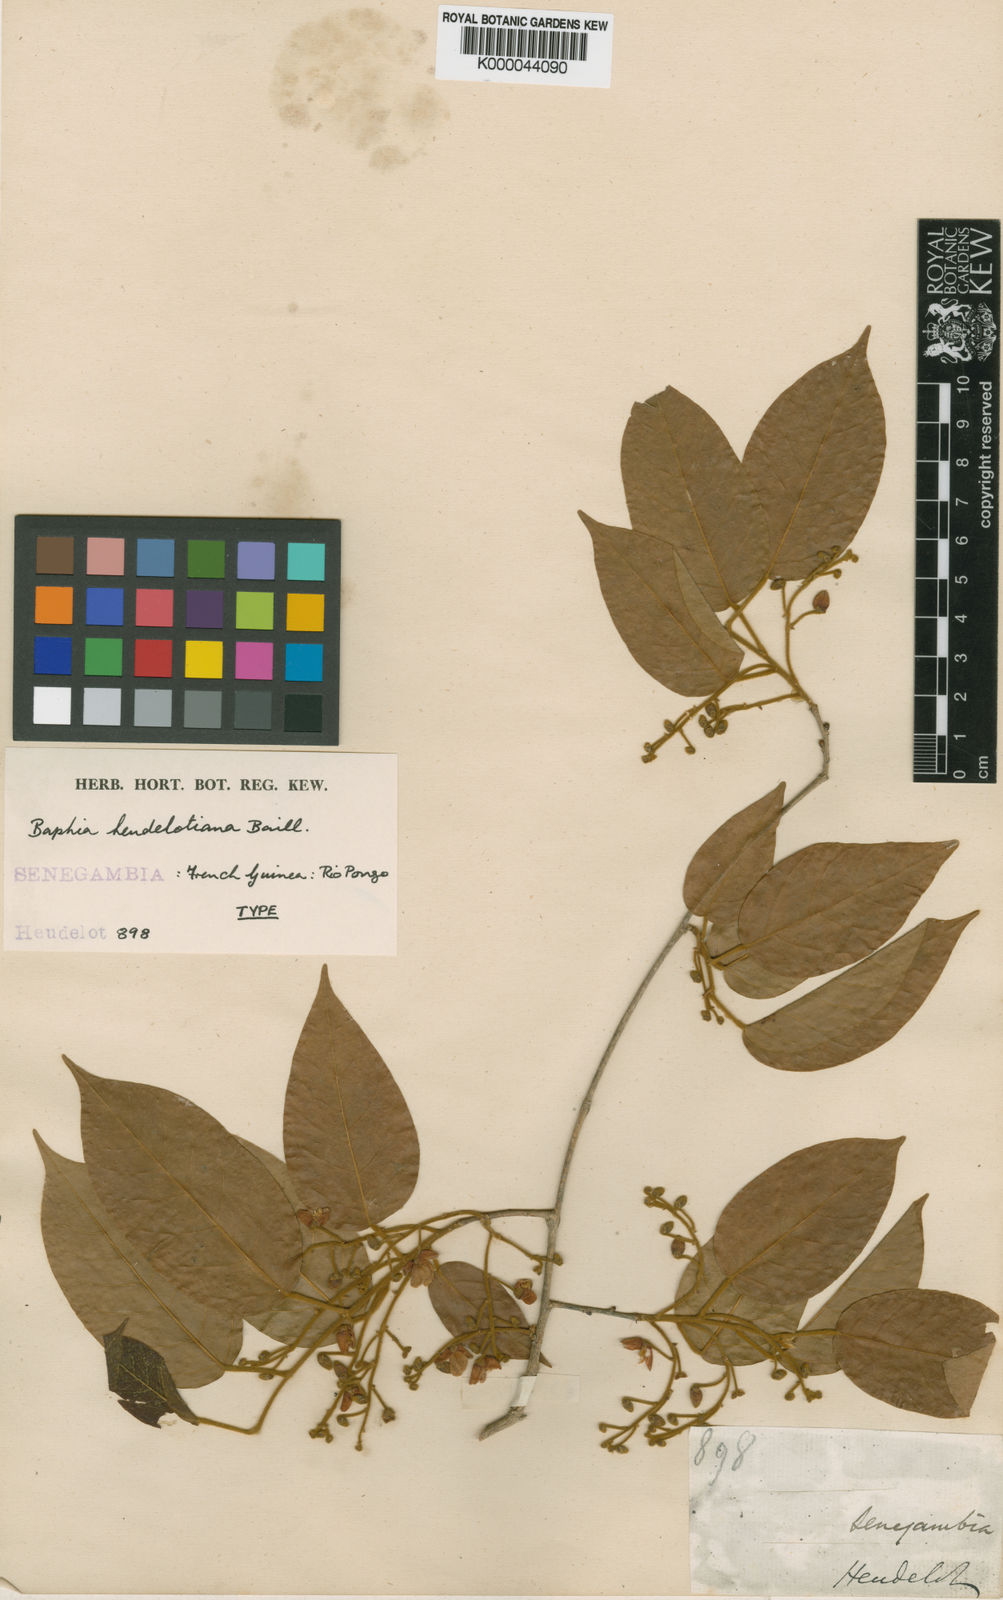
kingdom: Plantae
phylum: Tracheophyta
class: Magnoliopsida
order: Fabales
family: Fabaceae
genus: Baphia
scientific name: Baphia heudelotiana
